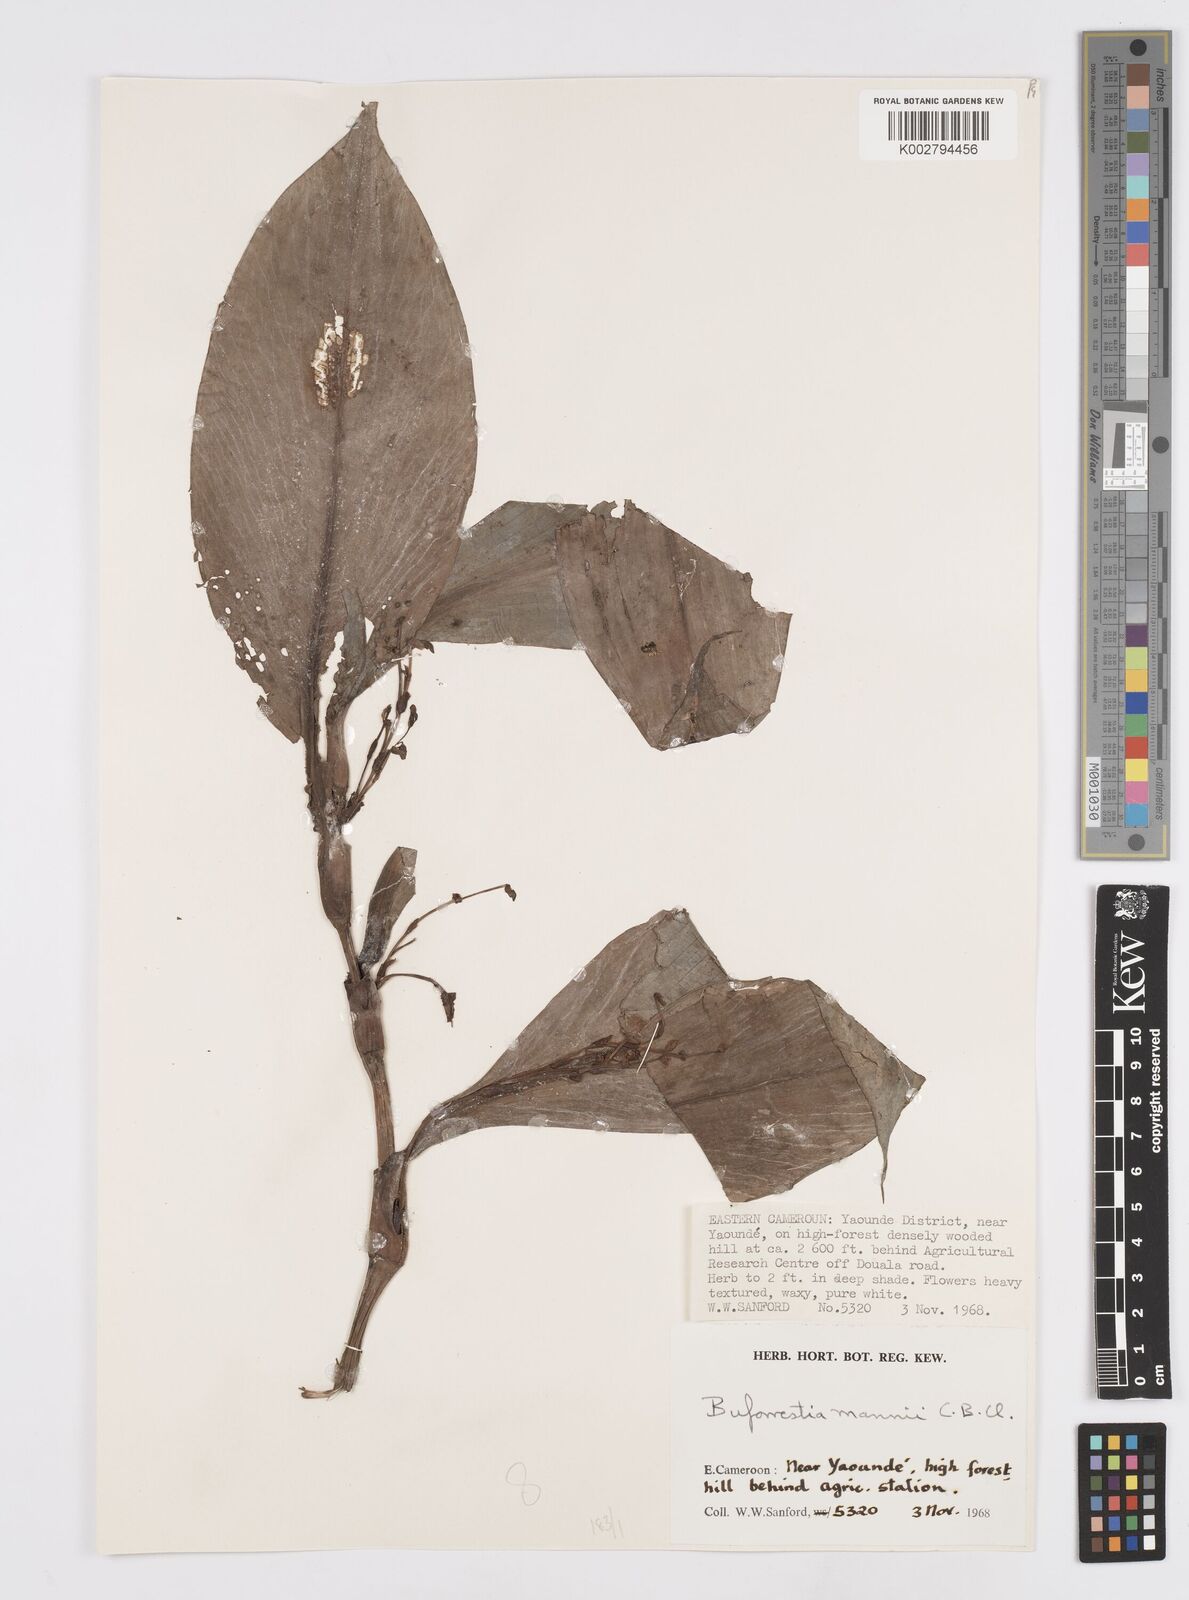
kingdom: Plantae
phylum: Tracheophyta
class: Liliopsida
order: Commelinales
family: Commelinaceae
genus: Buforrestia
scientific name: Buforrestia mannii
